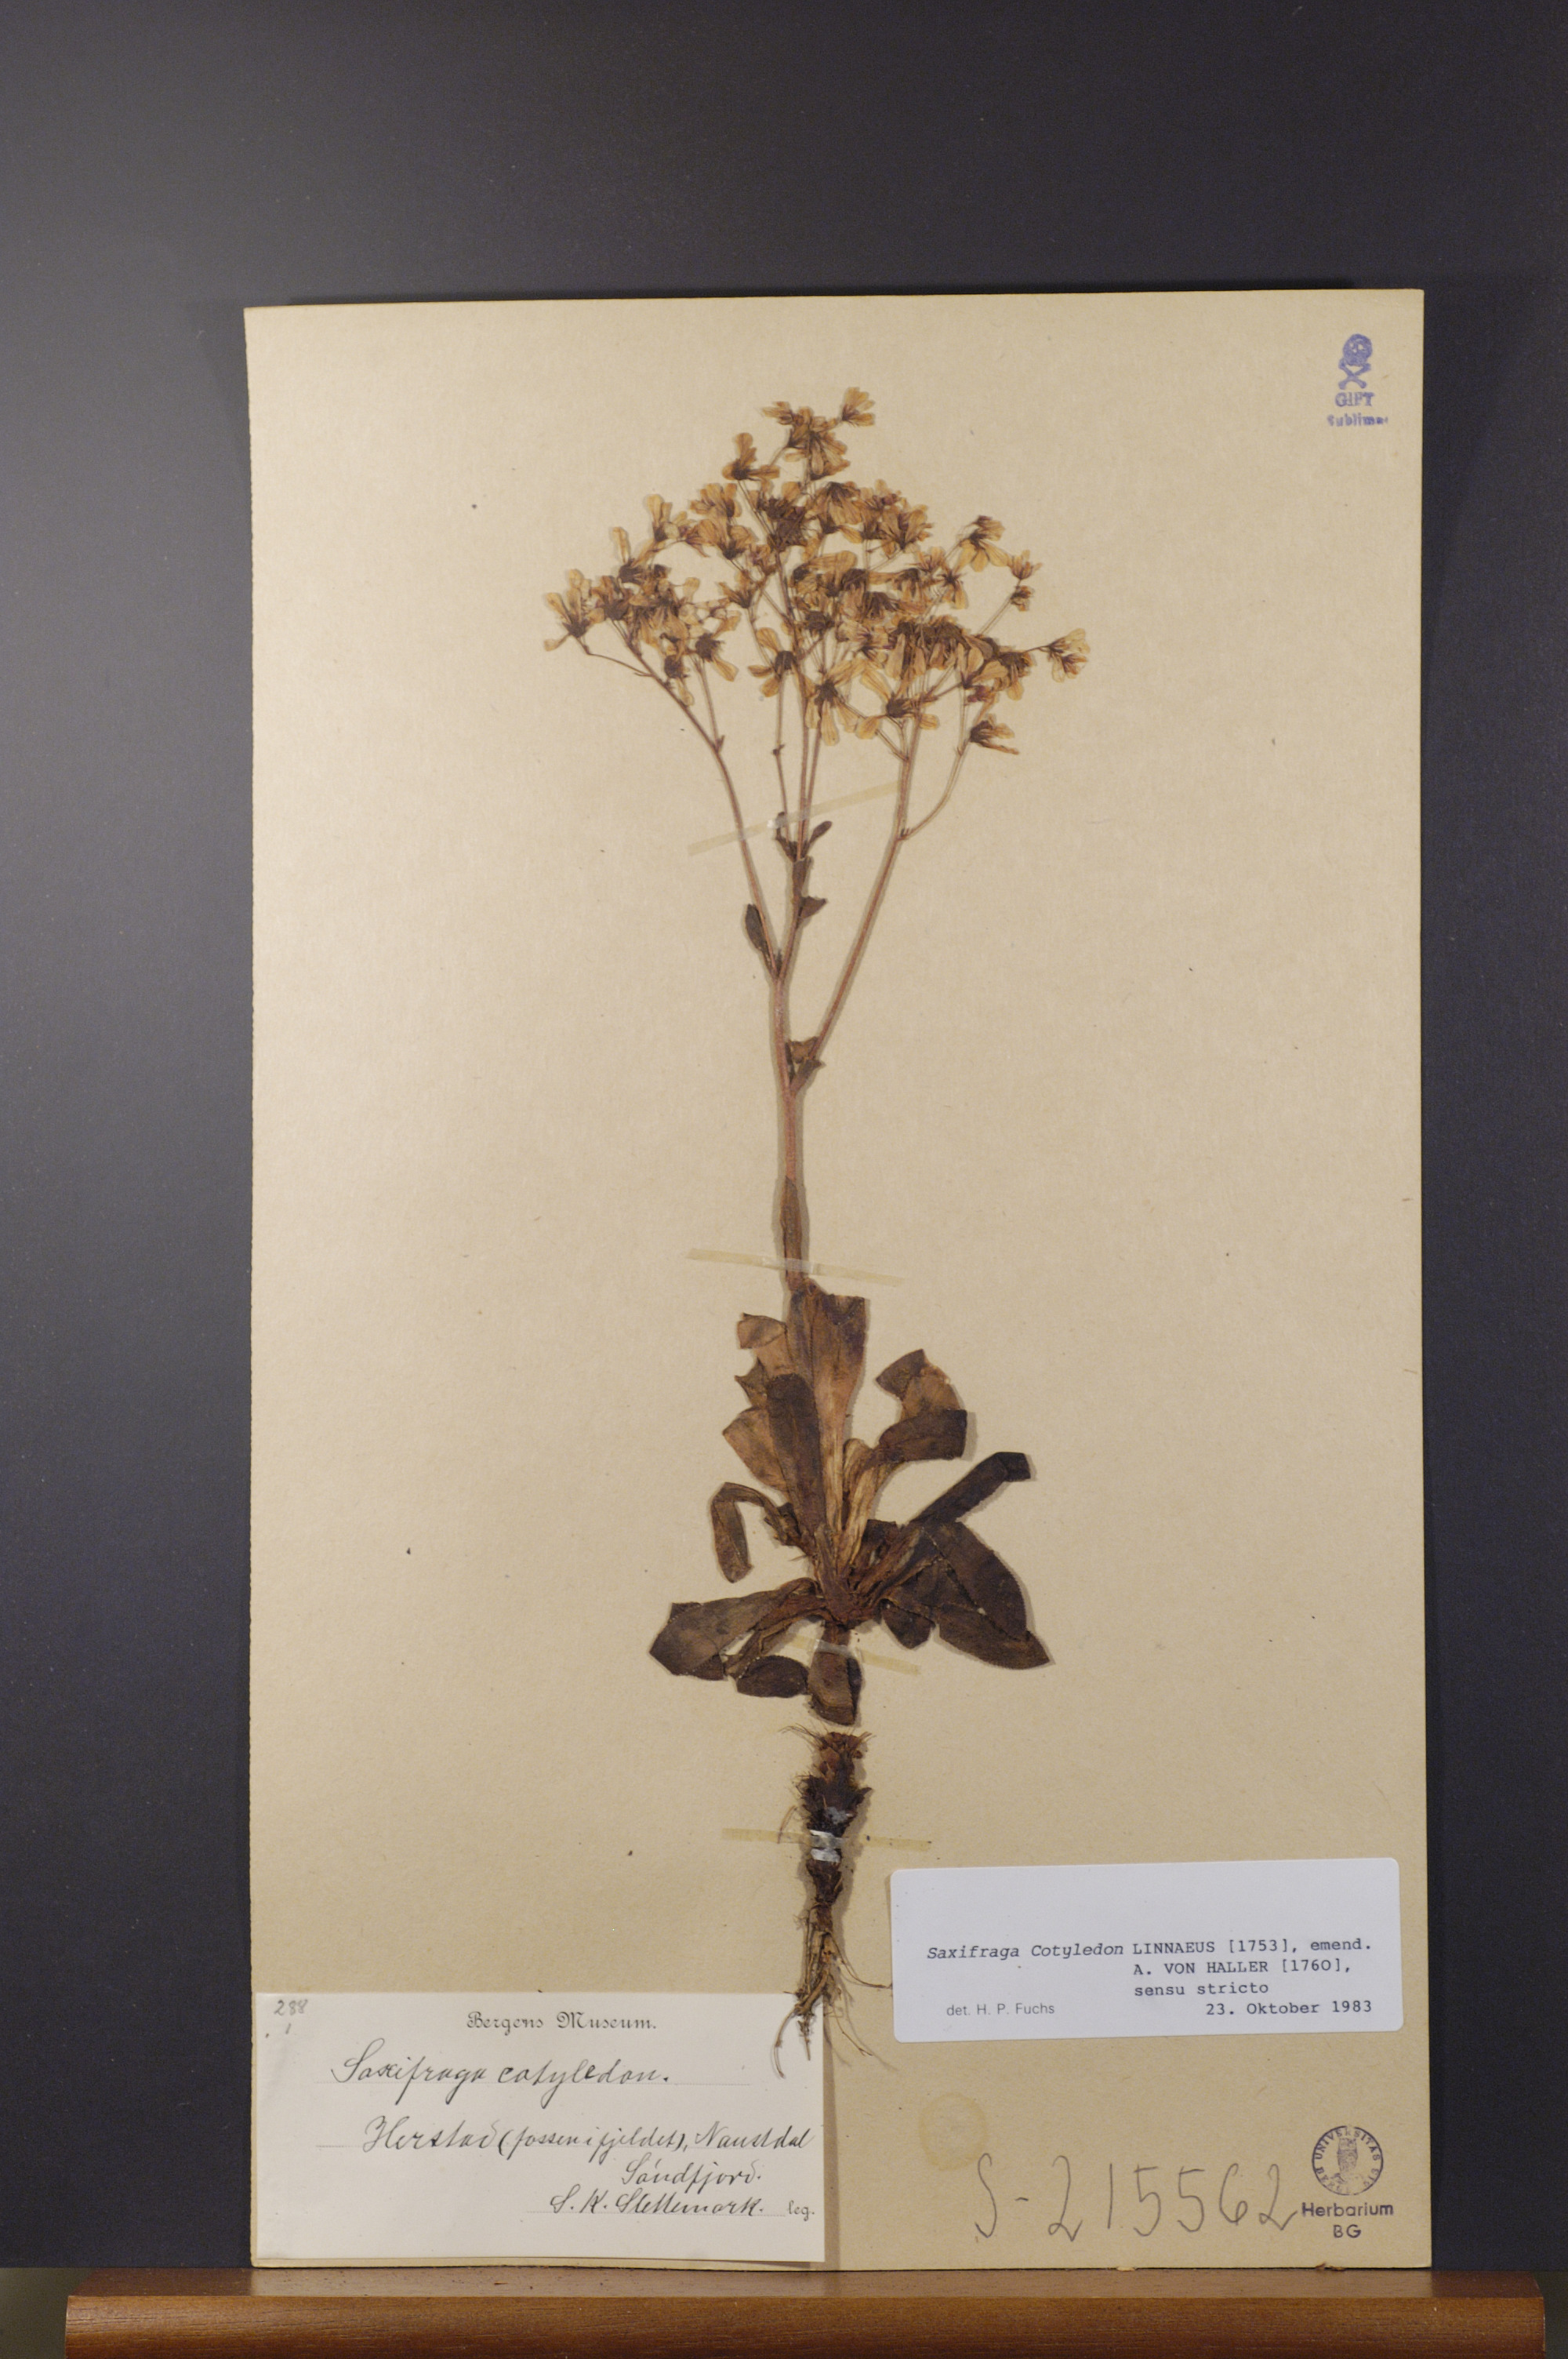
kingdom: Plantae
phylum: Tracheophyta
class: Magnoliopsida
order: Saxifragales
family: Saxifragaceae
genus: Saxifraga
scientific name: Saxifraga cotyledon
